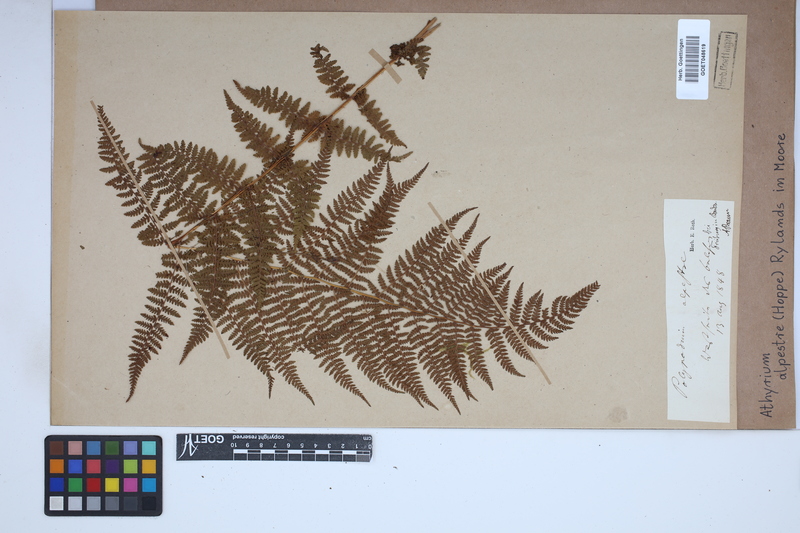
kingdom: Plantae
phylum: Tracheophyta
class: Polypodiopsida
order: Polypodiales
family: Athyriaceae
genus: Pseudathyrium
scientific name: Pseudathyrium alpestre
